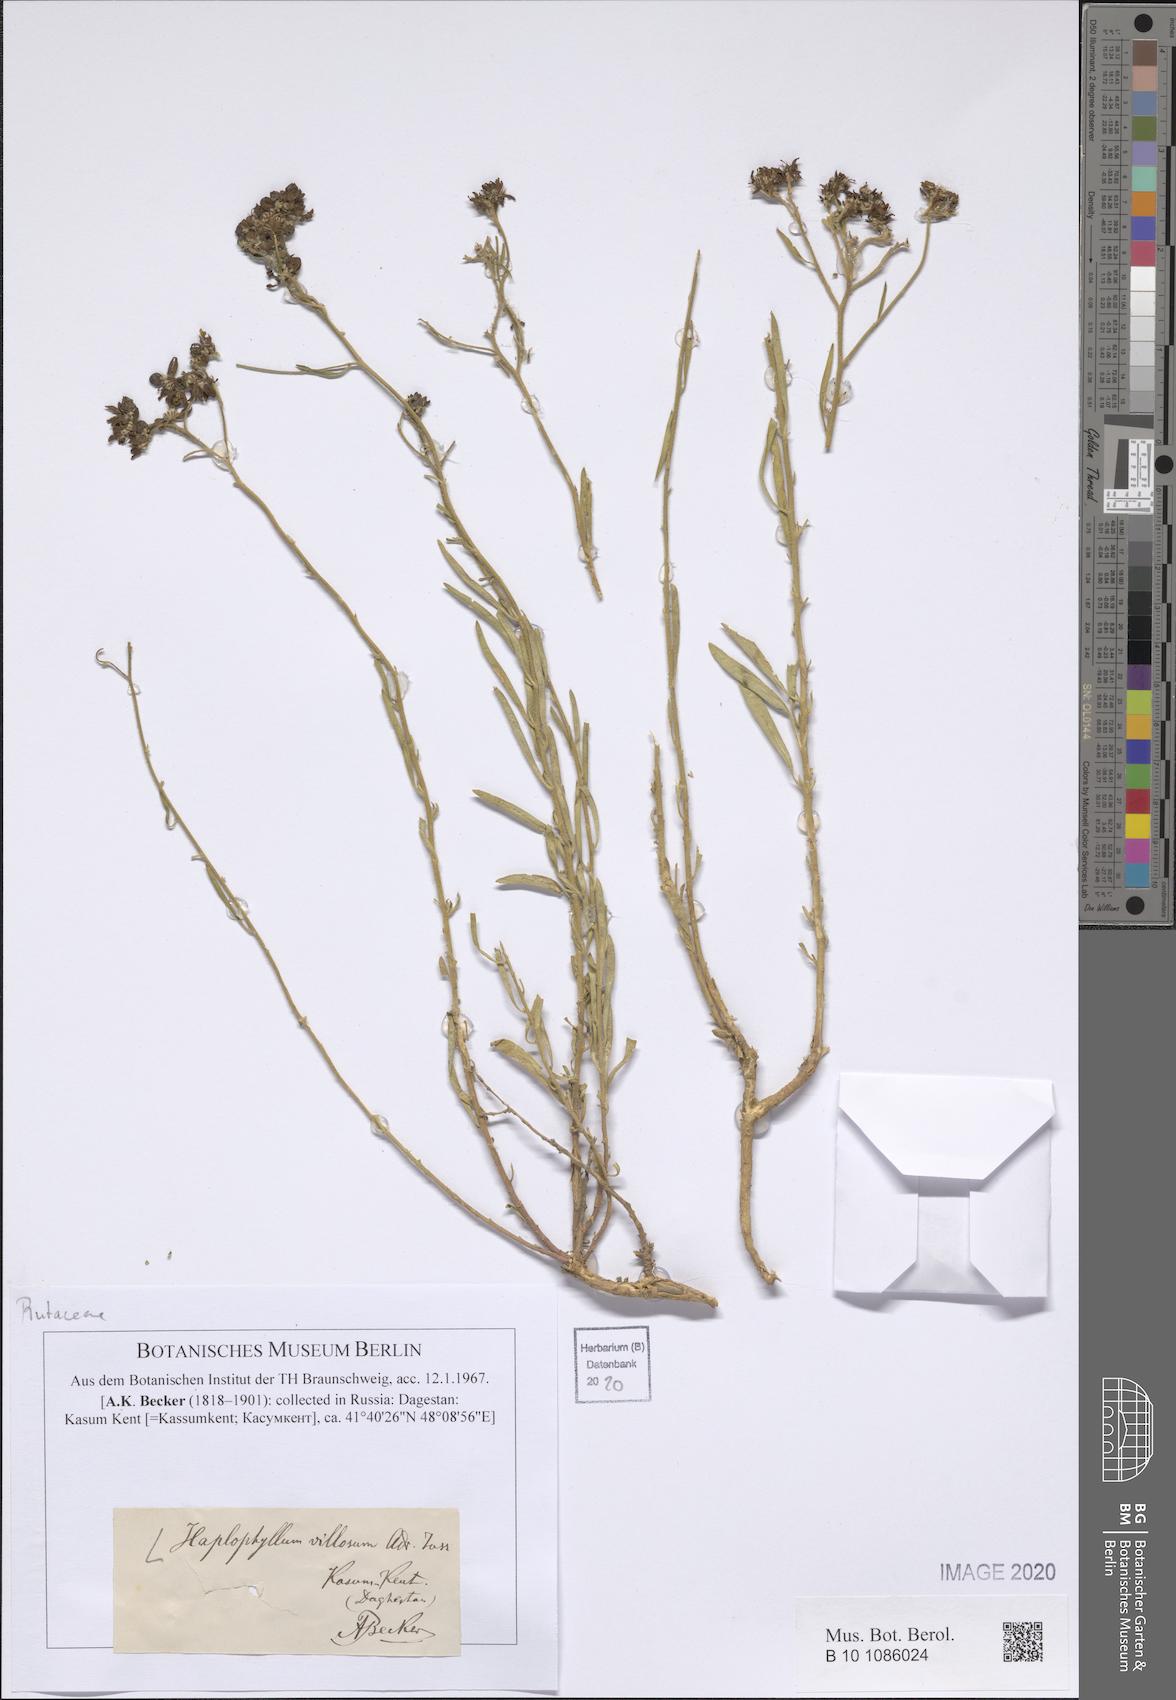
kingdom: Plantae
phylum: Tracheophyta
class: Magnoliopsida
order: Sapindales
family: Rutaceae
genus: Haplophyllum
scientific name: Haplophyllum villosum
